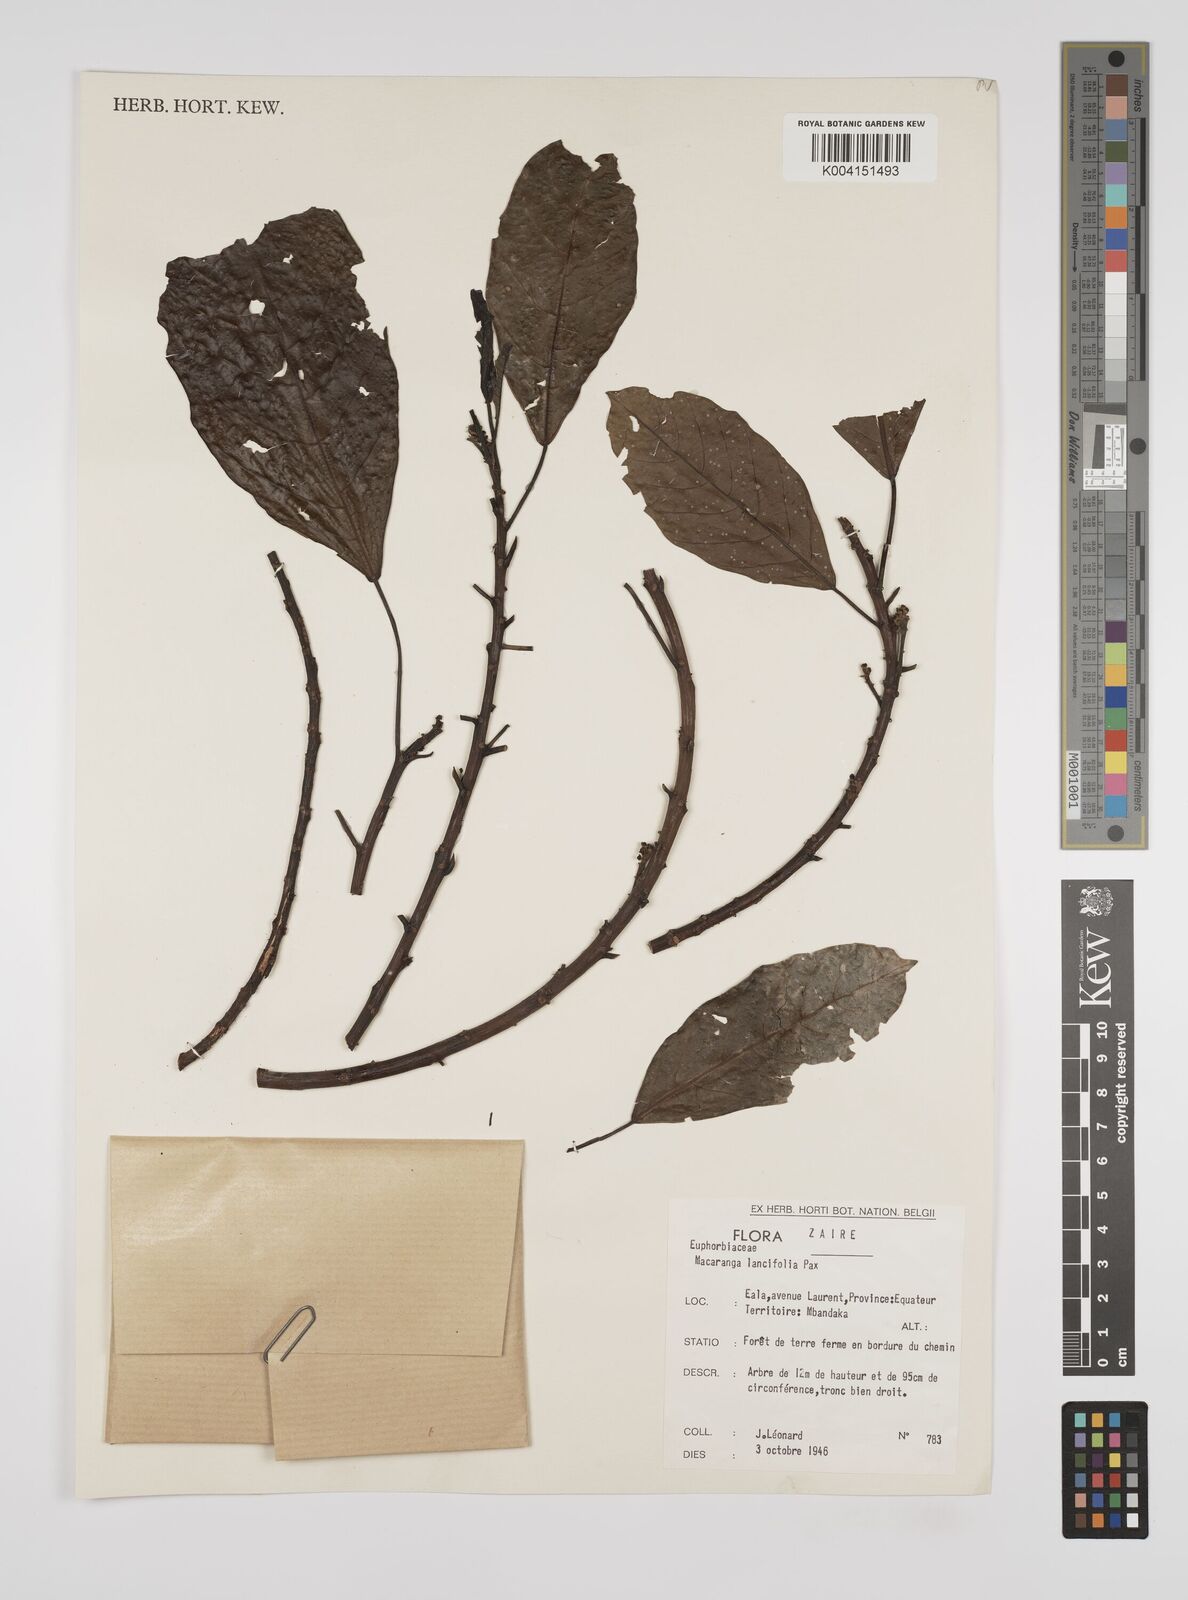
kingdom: Plantae
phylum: Tracheophyta
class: Magnoliopsida
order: Malpighiales
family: Euphorbiaceae
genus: Macaranga
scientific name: Macaranga barteri
